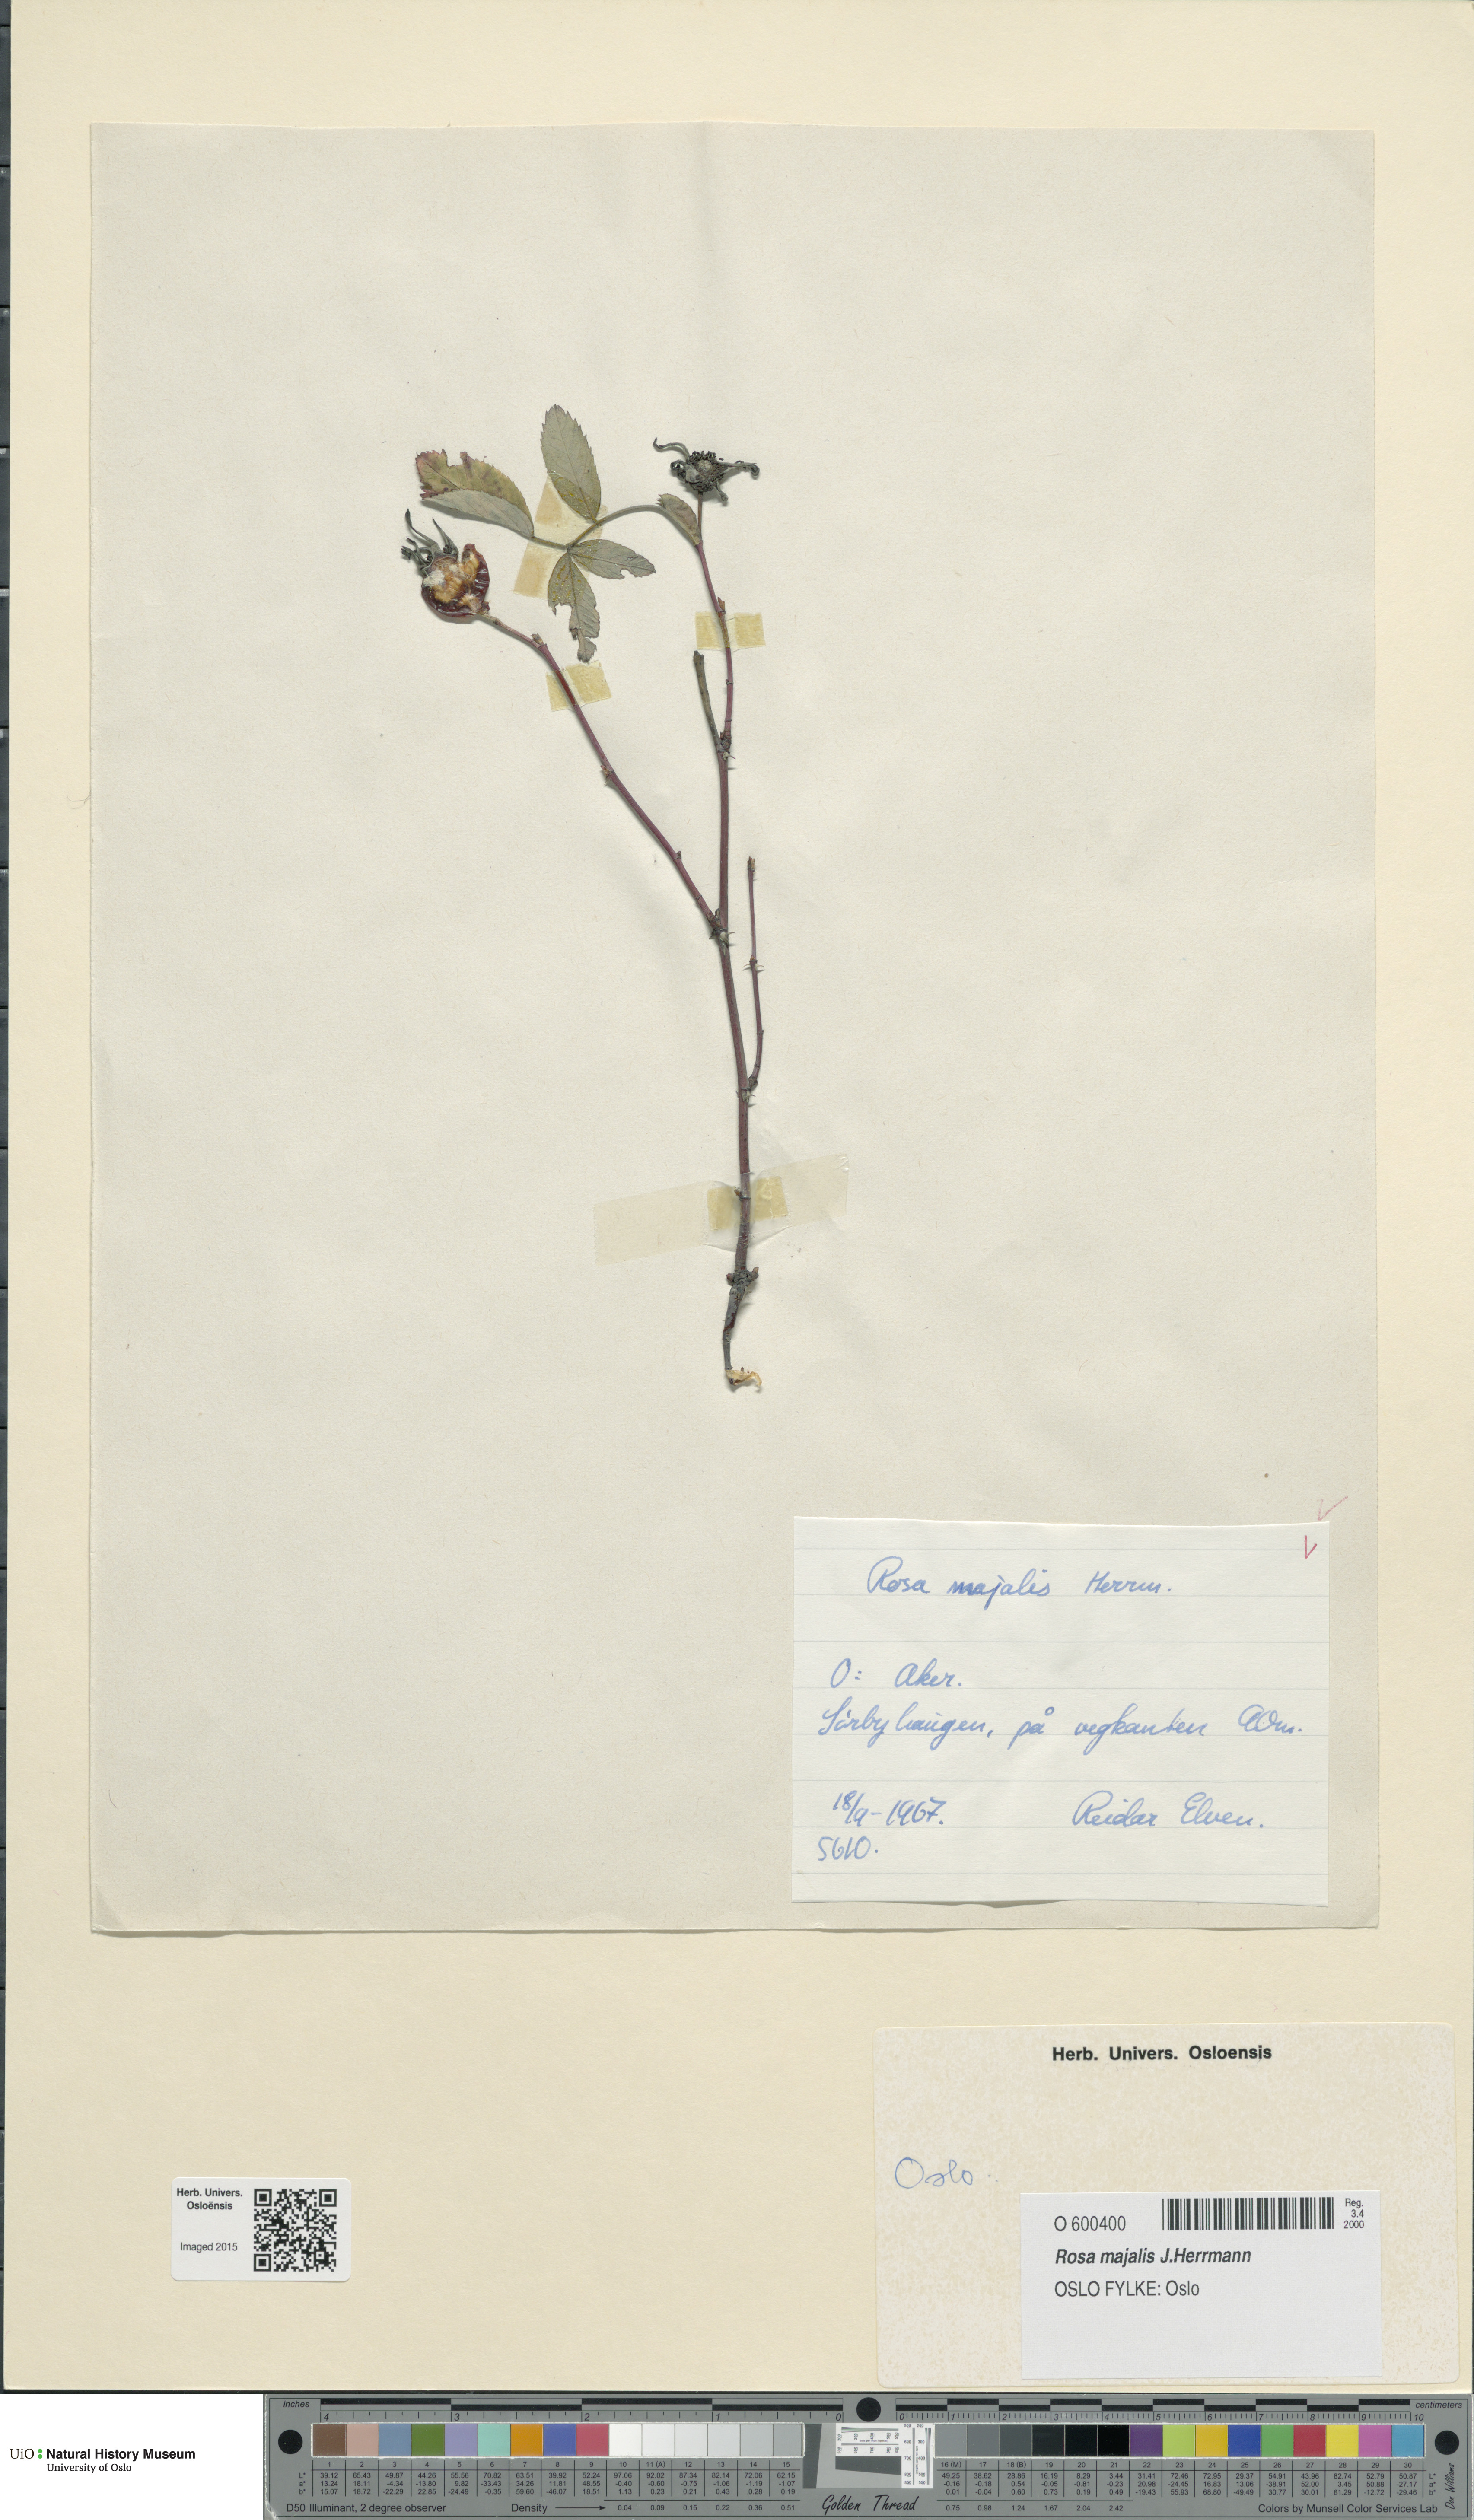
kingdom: Plantae
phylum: Tracheophyta
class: Magnoliopsida
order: Rosales
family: Rosaceae
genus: Rosa
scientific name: Rosa majalis
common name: Cinnamon rose
